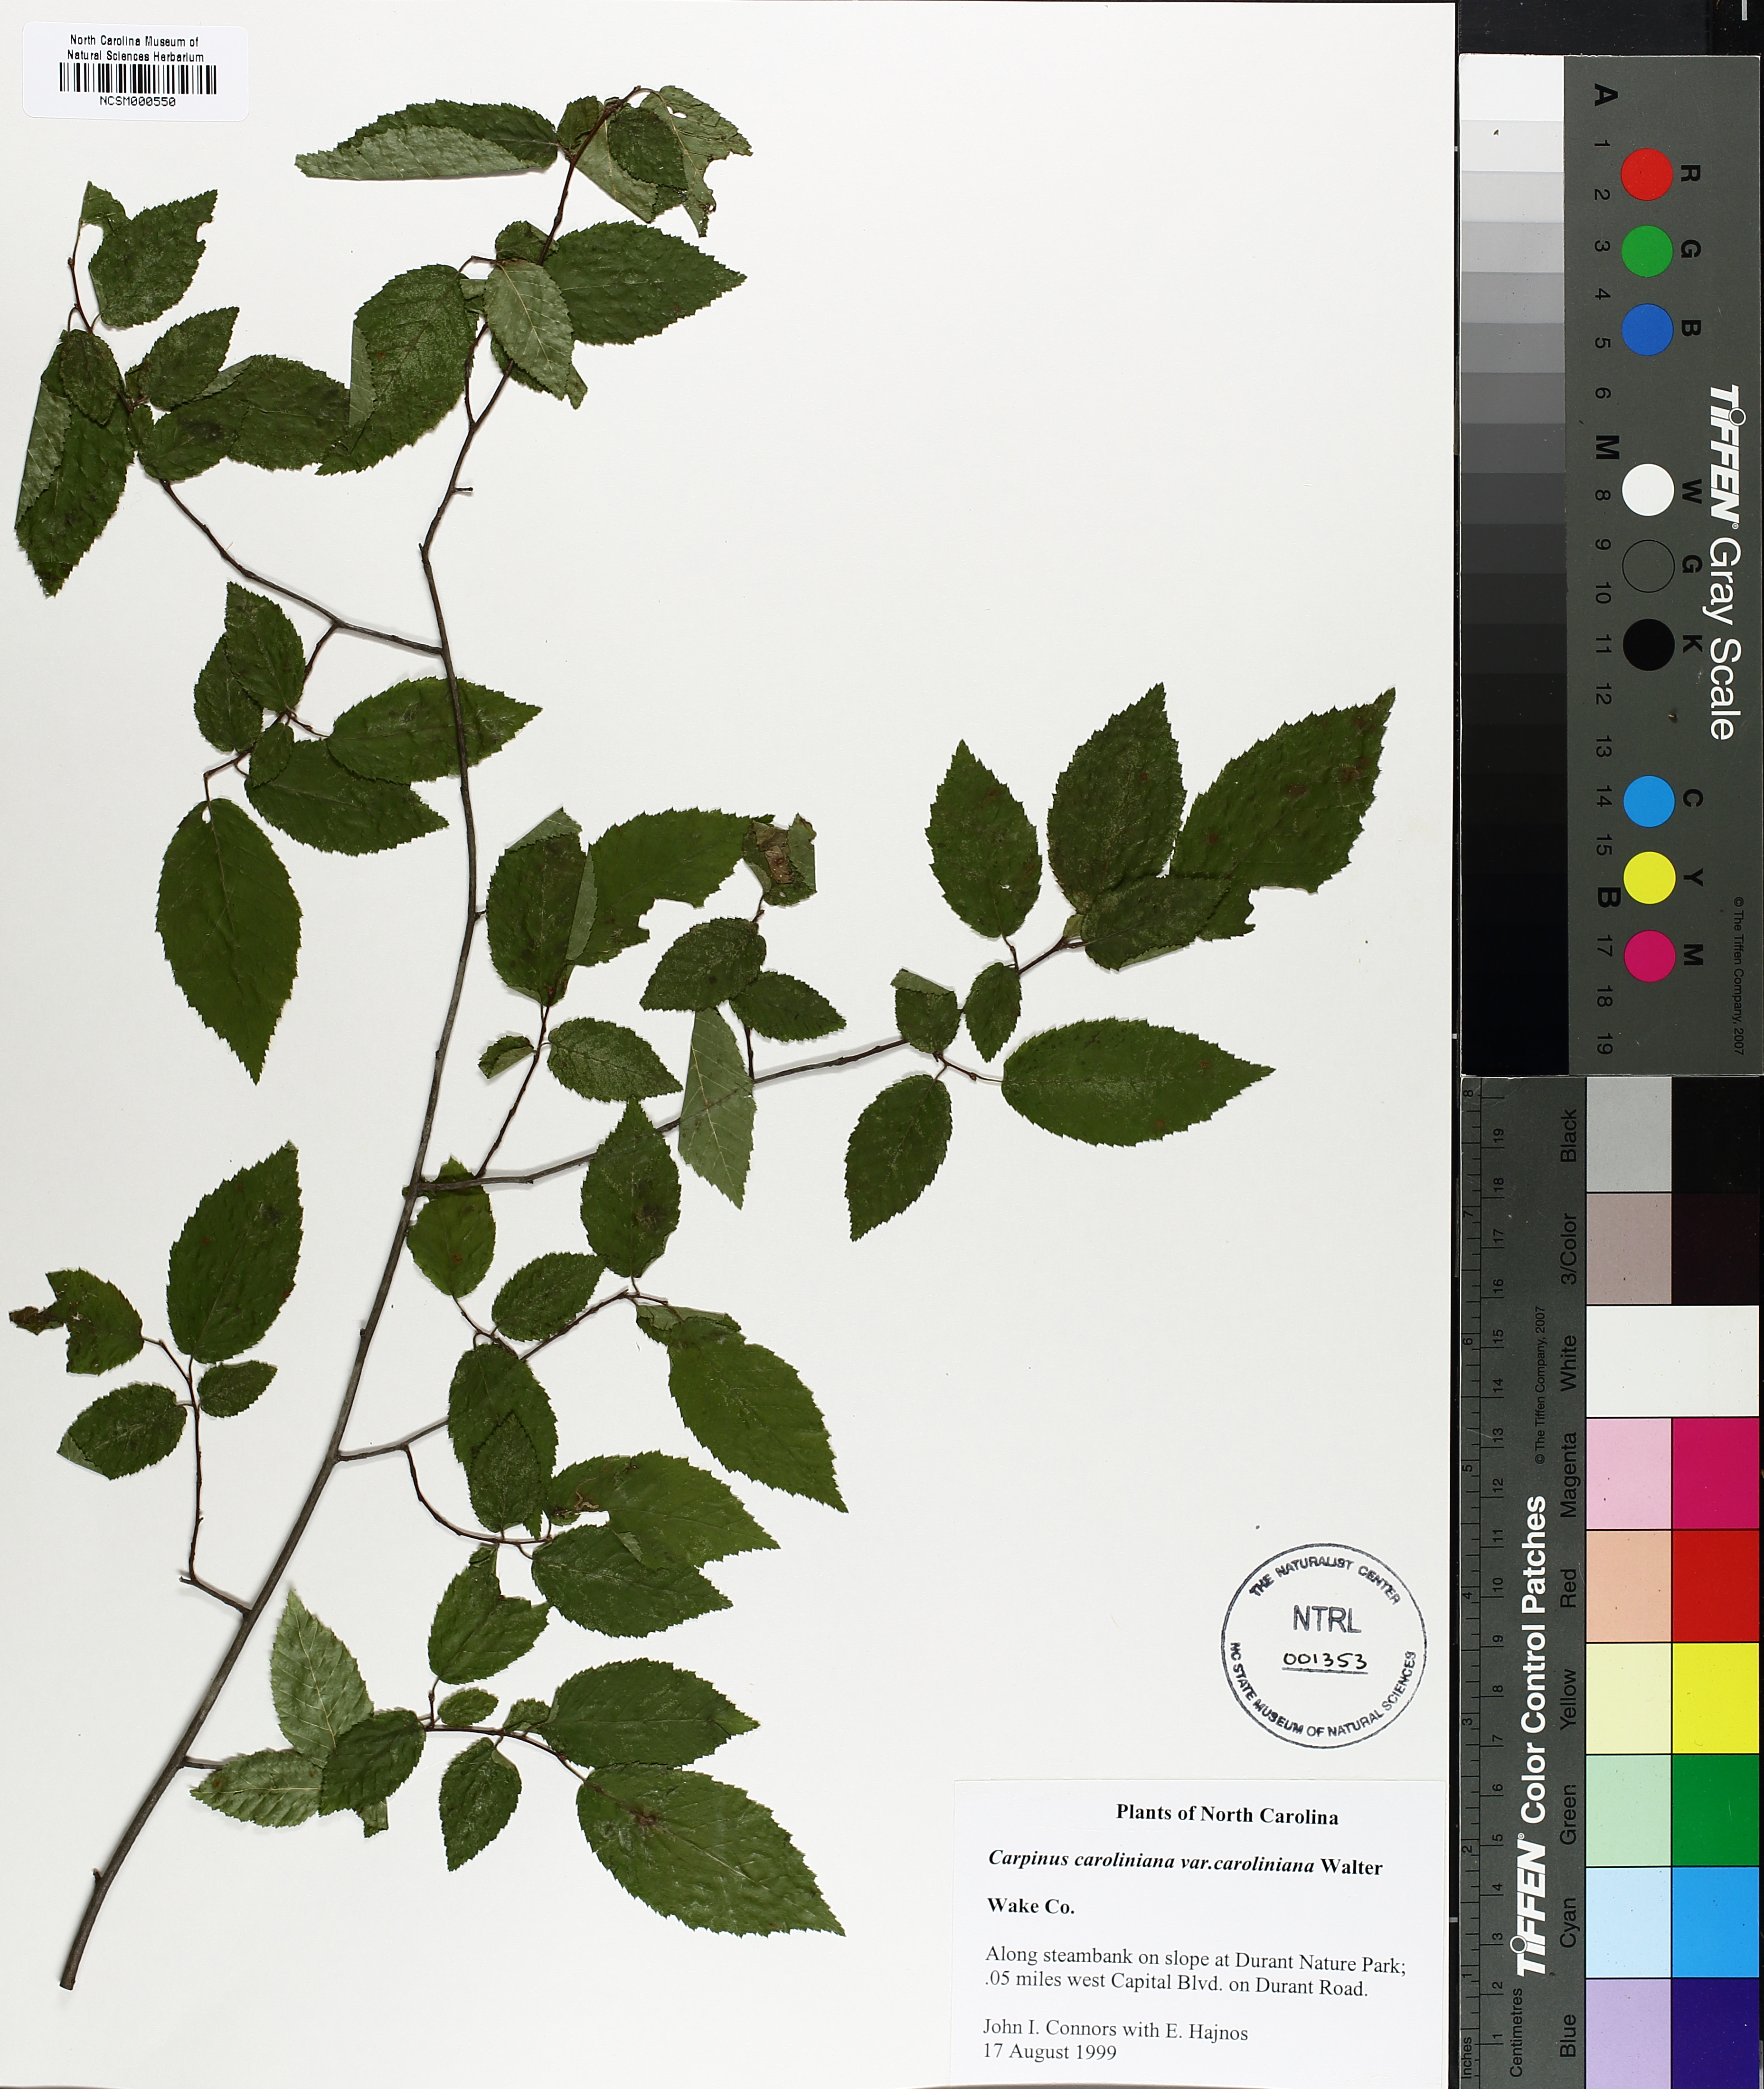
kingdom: Plantae
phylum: Tracheophyta
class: Magnoliopsida
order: Fagales
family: Betulaceae
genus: Carpinus
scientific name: Carpinus caroliniana
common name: American hornbeam
